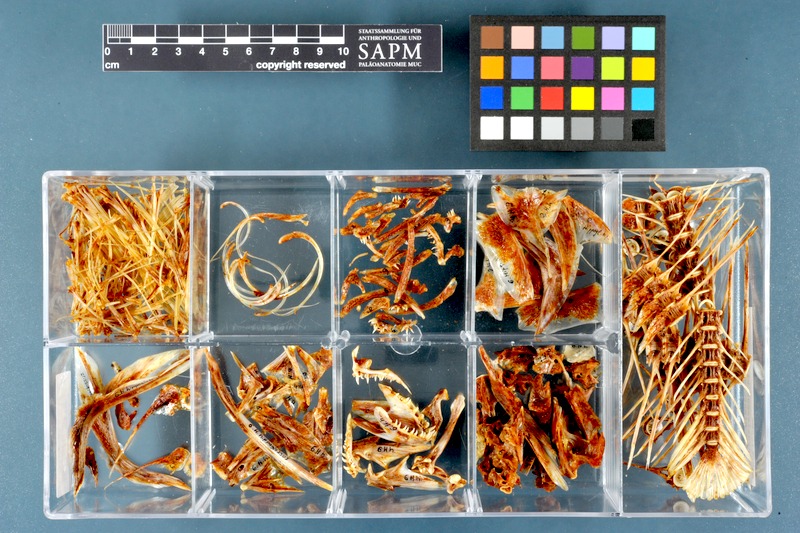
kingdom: Animalia
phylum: Chordata
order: Pleuronectiformes
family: Pleuronectidae
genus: Hippoglossus
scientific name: Hippoglossus hippoglossus
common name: Atlantic halibut
